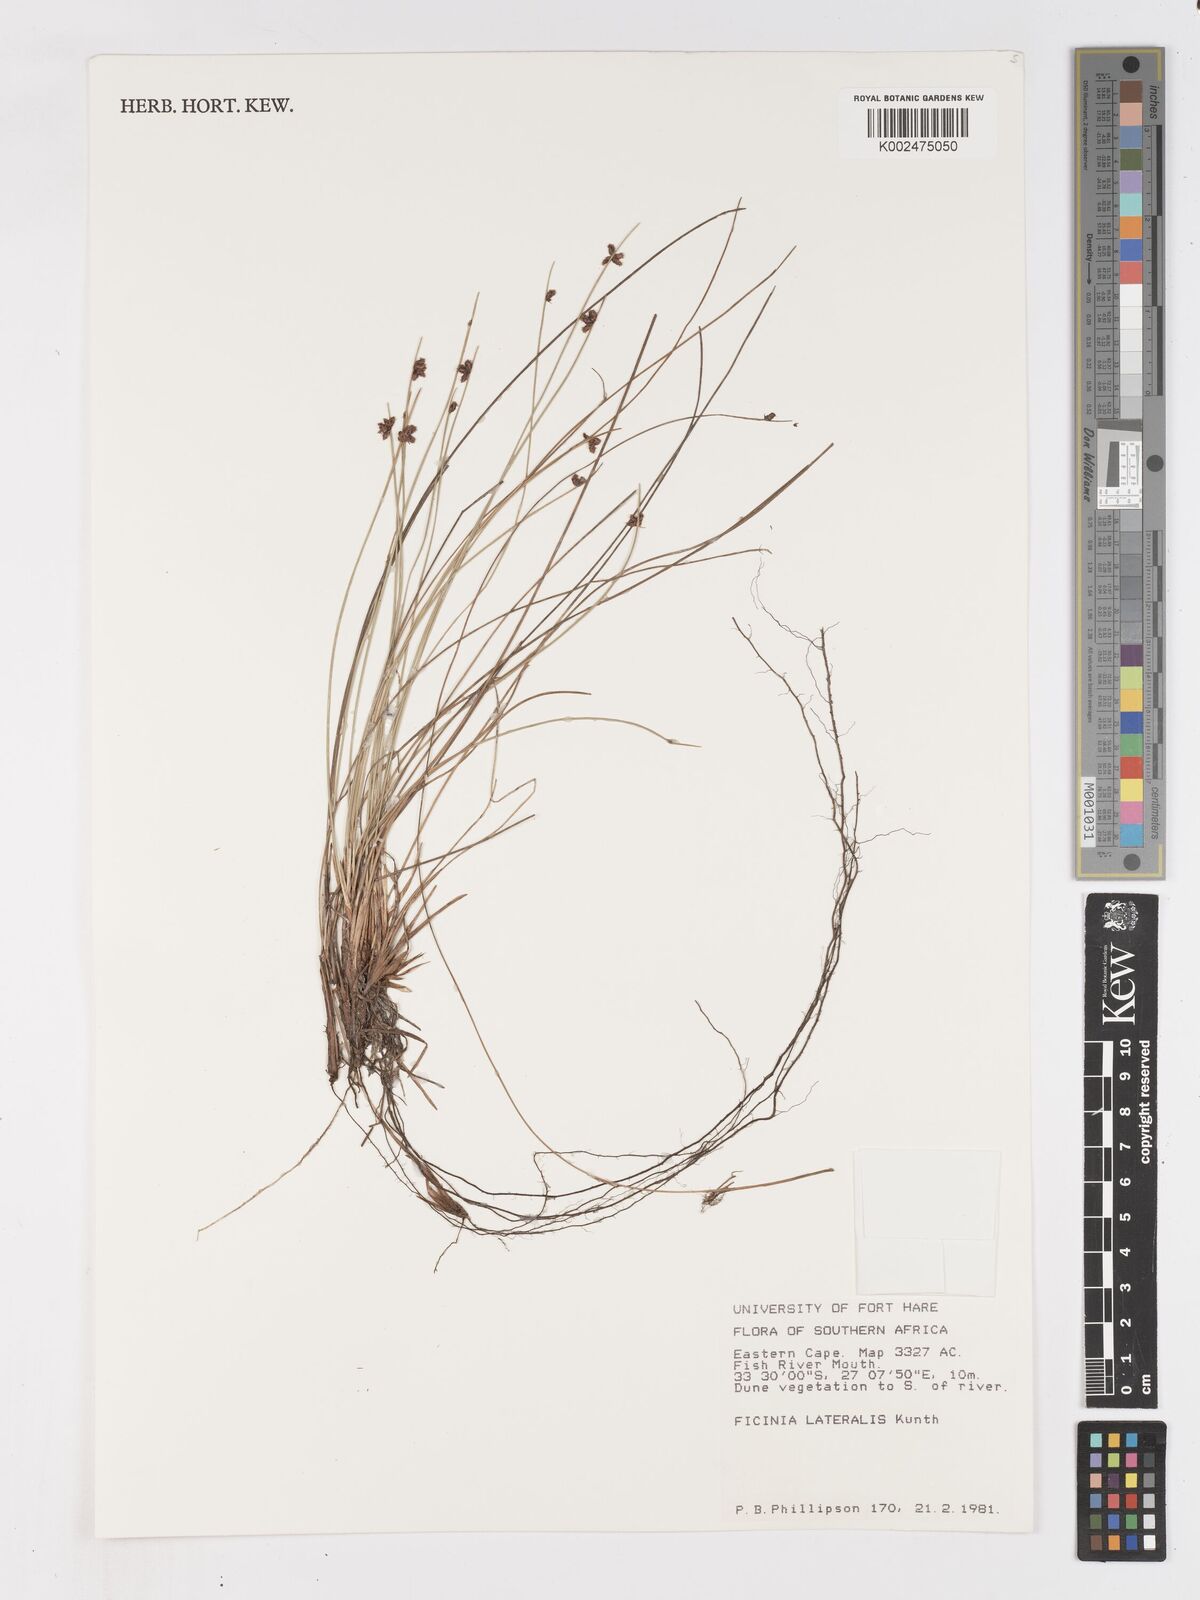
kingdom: Plantae
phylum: Tracheophyta
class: Liliopsida
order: Poales
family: Cyperaceae
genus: Ficinia
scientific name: Ficinia lateralis
